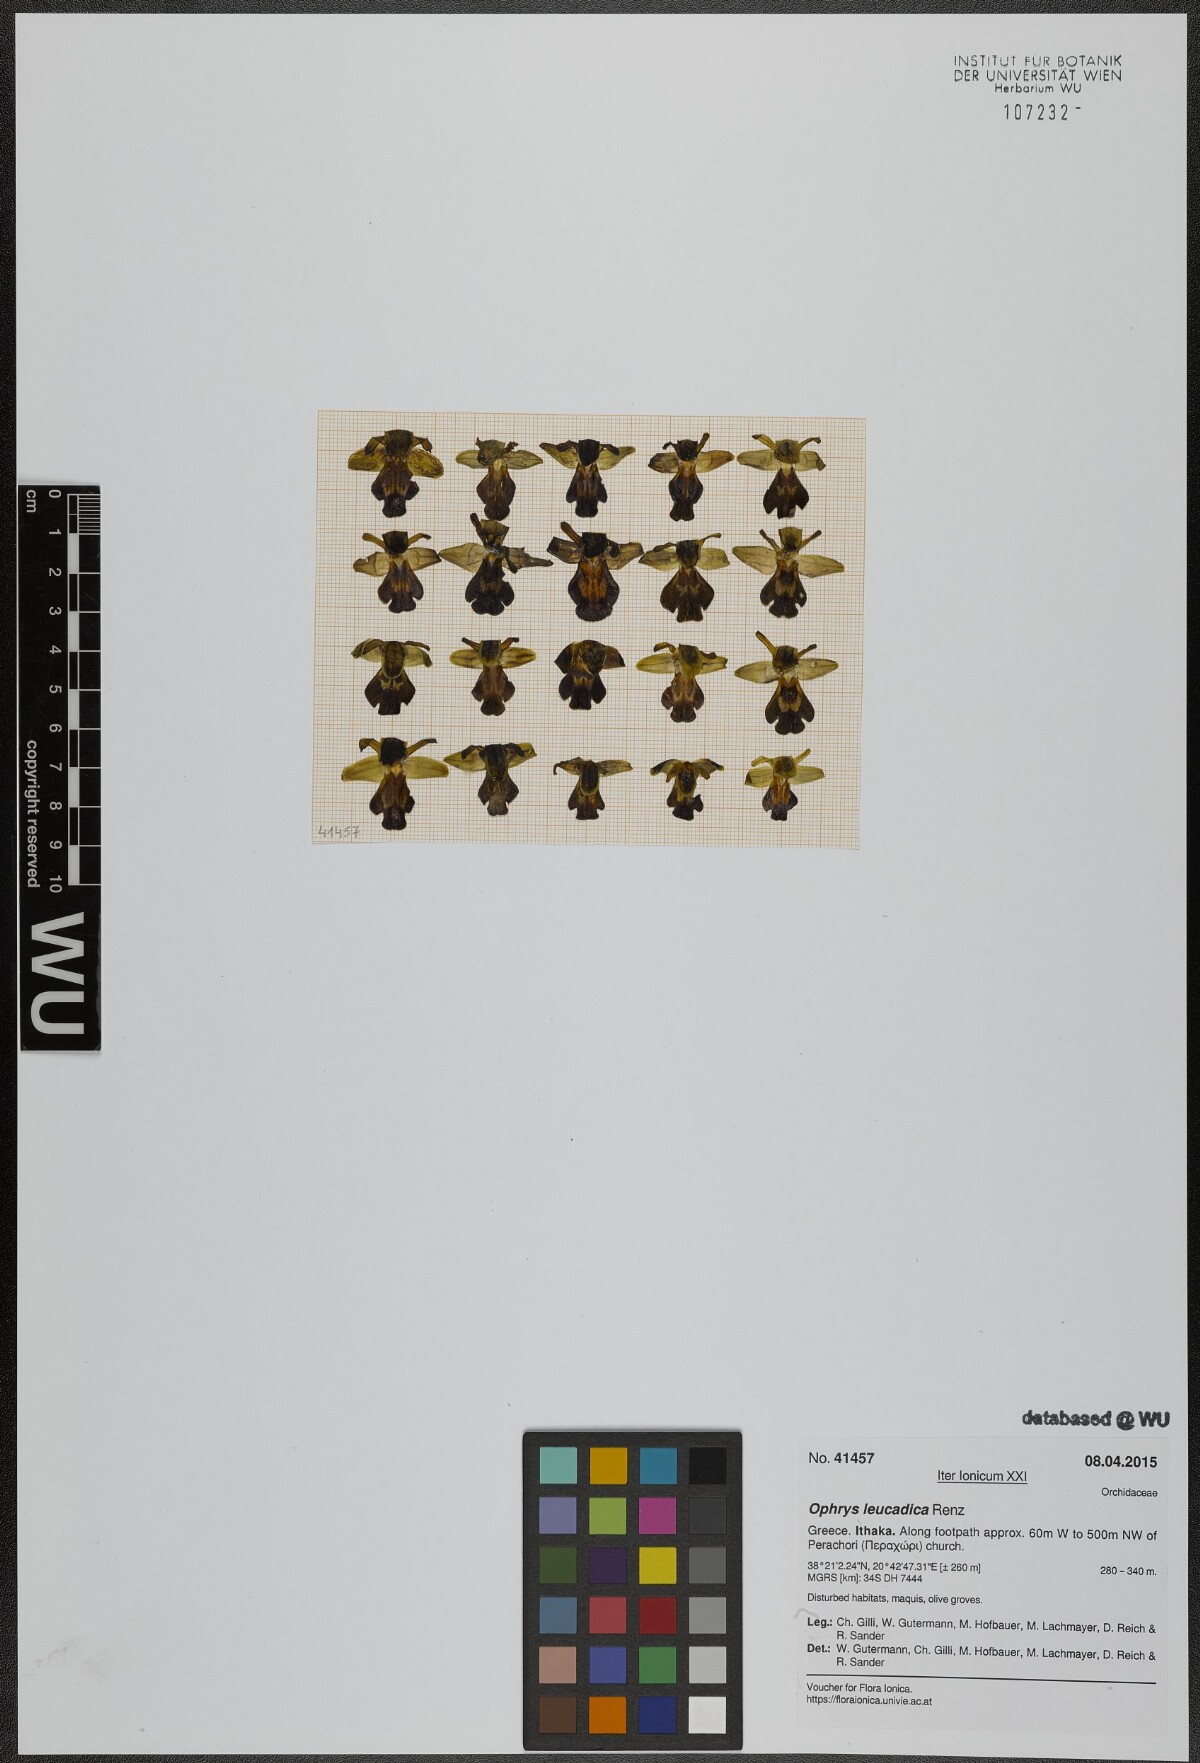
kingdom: Plantae
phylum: Tracheophyta
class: Liliopsida
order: Asparagales
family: Orchidaceae
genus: Ophrys
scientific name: Ophrys fusca
